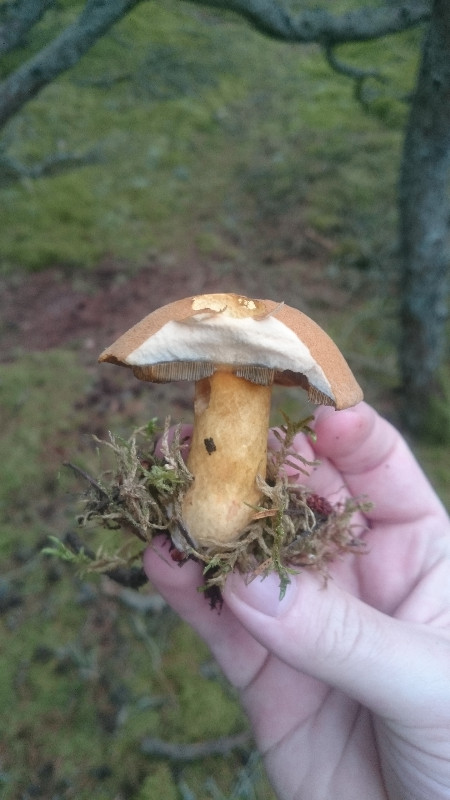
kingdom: Fungi
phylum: Basidiomycota
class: Agaricomycetes
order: Boletales
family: Suillaceae
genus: Suillus
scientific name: Suillus variegatus
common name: broget slimrørhat
